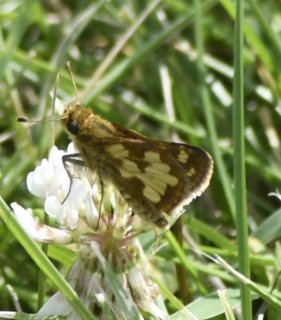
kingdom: Animalia
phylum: Arthropoda
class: Insecta
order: Lepidoptera
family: Hesperiidae
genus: Polites
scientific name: Polites coras
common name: Peck's Skipper
